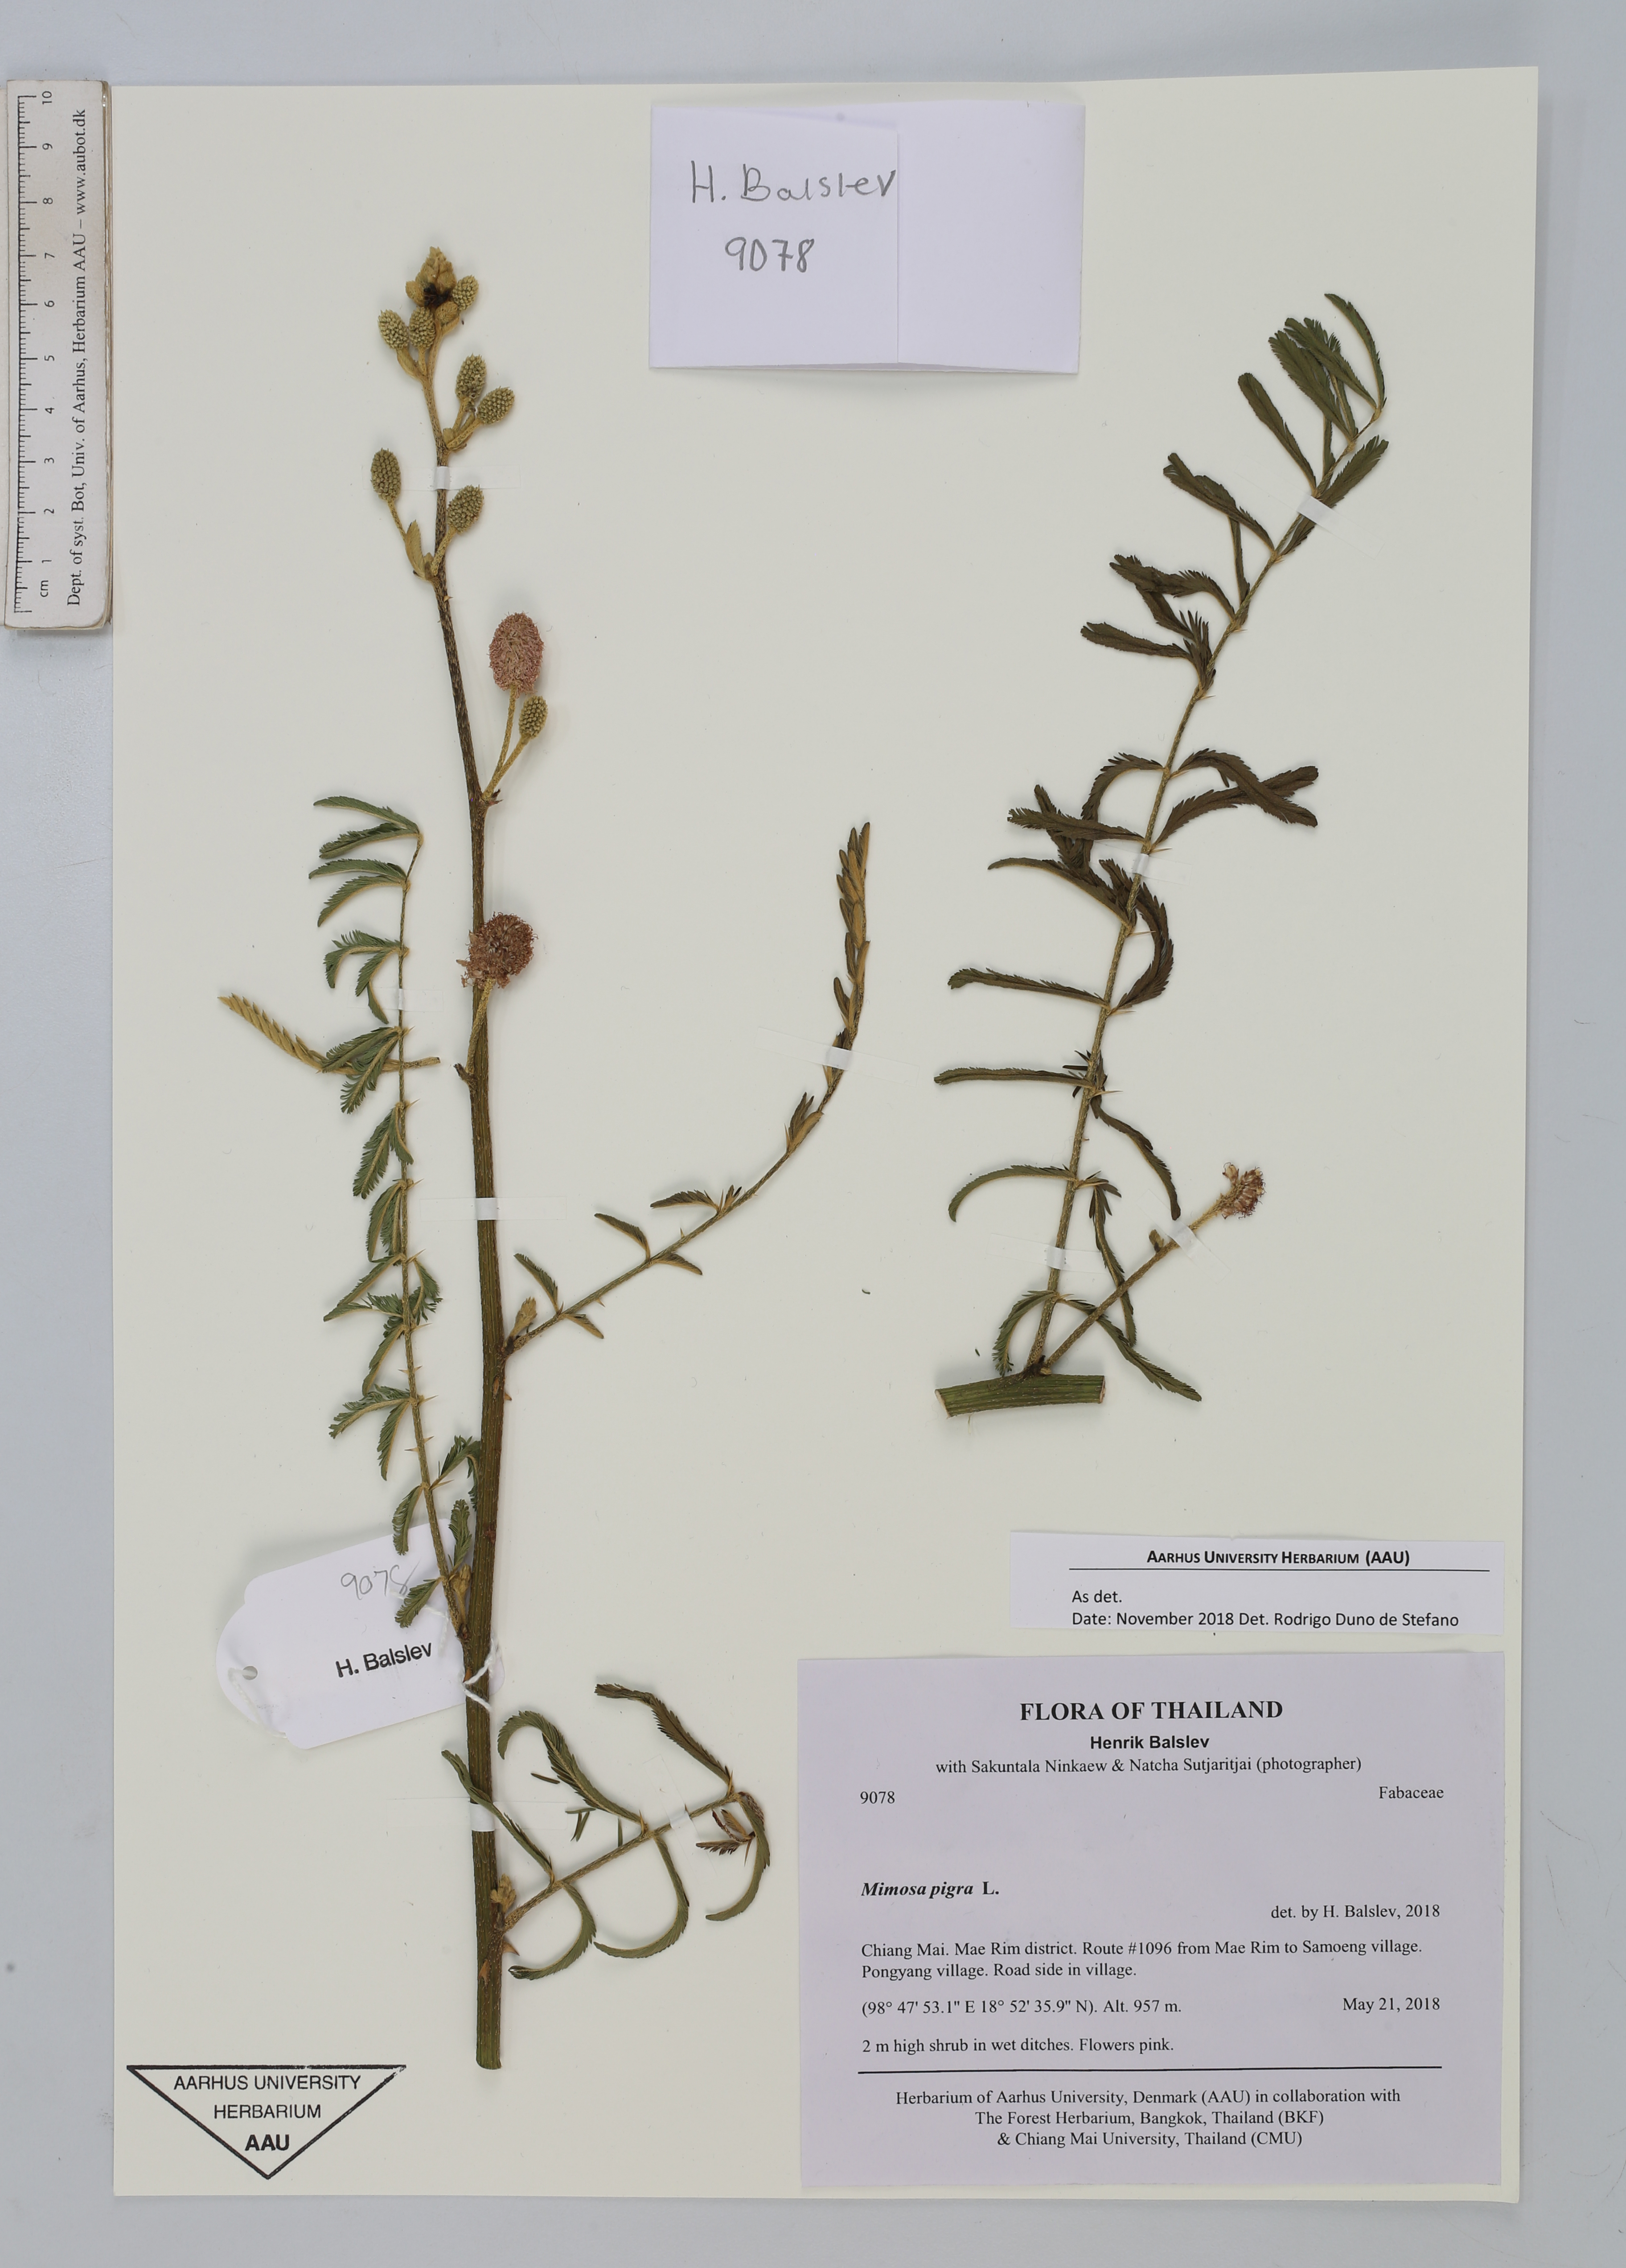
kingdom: Plantae
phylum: Tracheophyta
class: Magnoliopsida
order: Fabales
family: Fabaceae
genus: Mimosa
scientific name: Mimosa pigra
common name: Black mimosa
